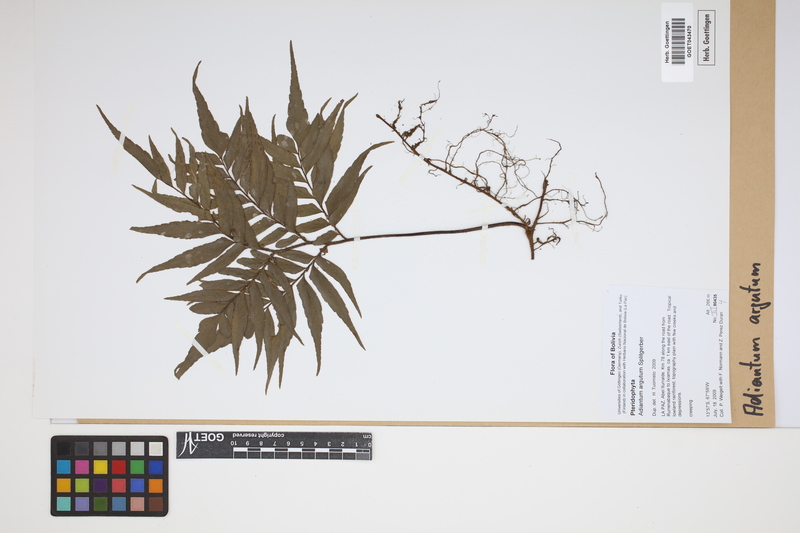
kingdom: Plantae
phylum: Tracheophyta
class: Polypodiopsida
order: Polypodiales
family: Pteridaceae
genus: Adiantum
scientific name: Adiantum argutum
